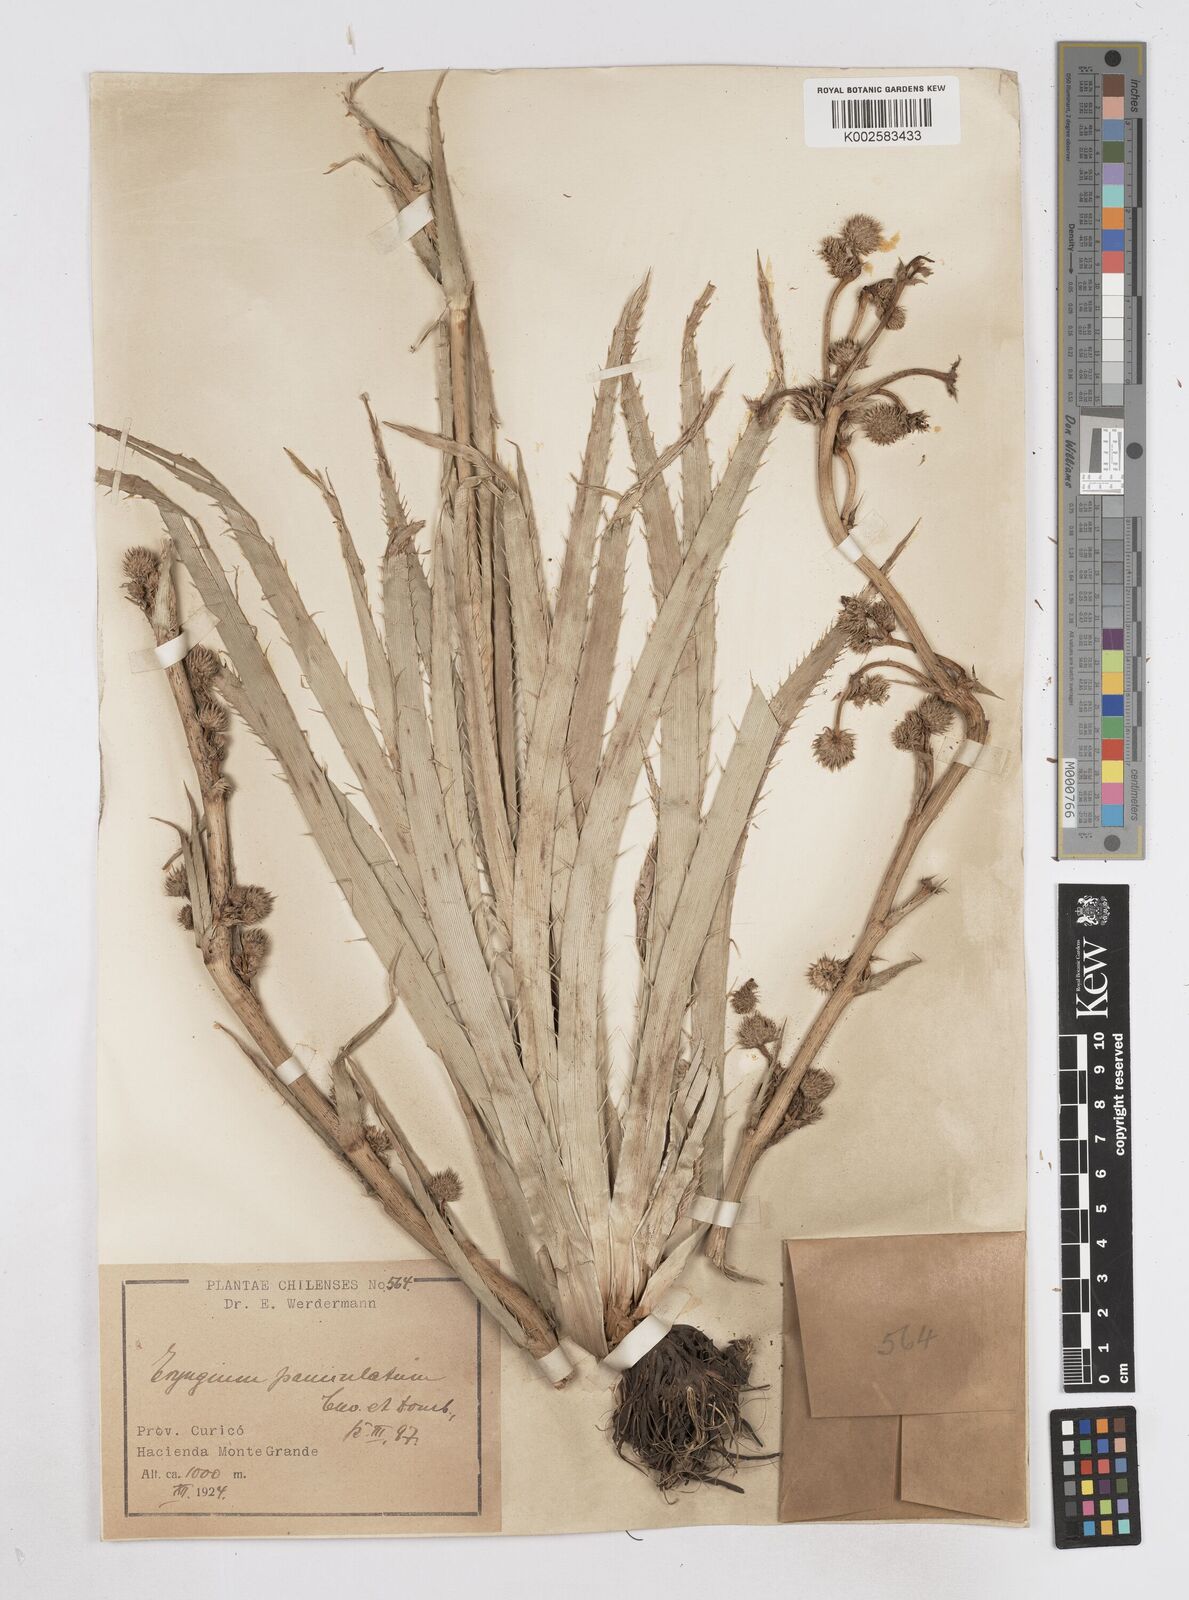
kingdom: Plantae
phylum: Tracheophyta
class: Magnoliopsida
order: Apiales
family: Apiaceae
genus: Eryngium
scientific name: Eryngium humboldtii
